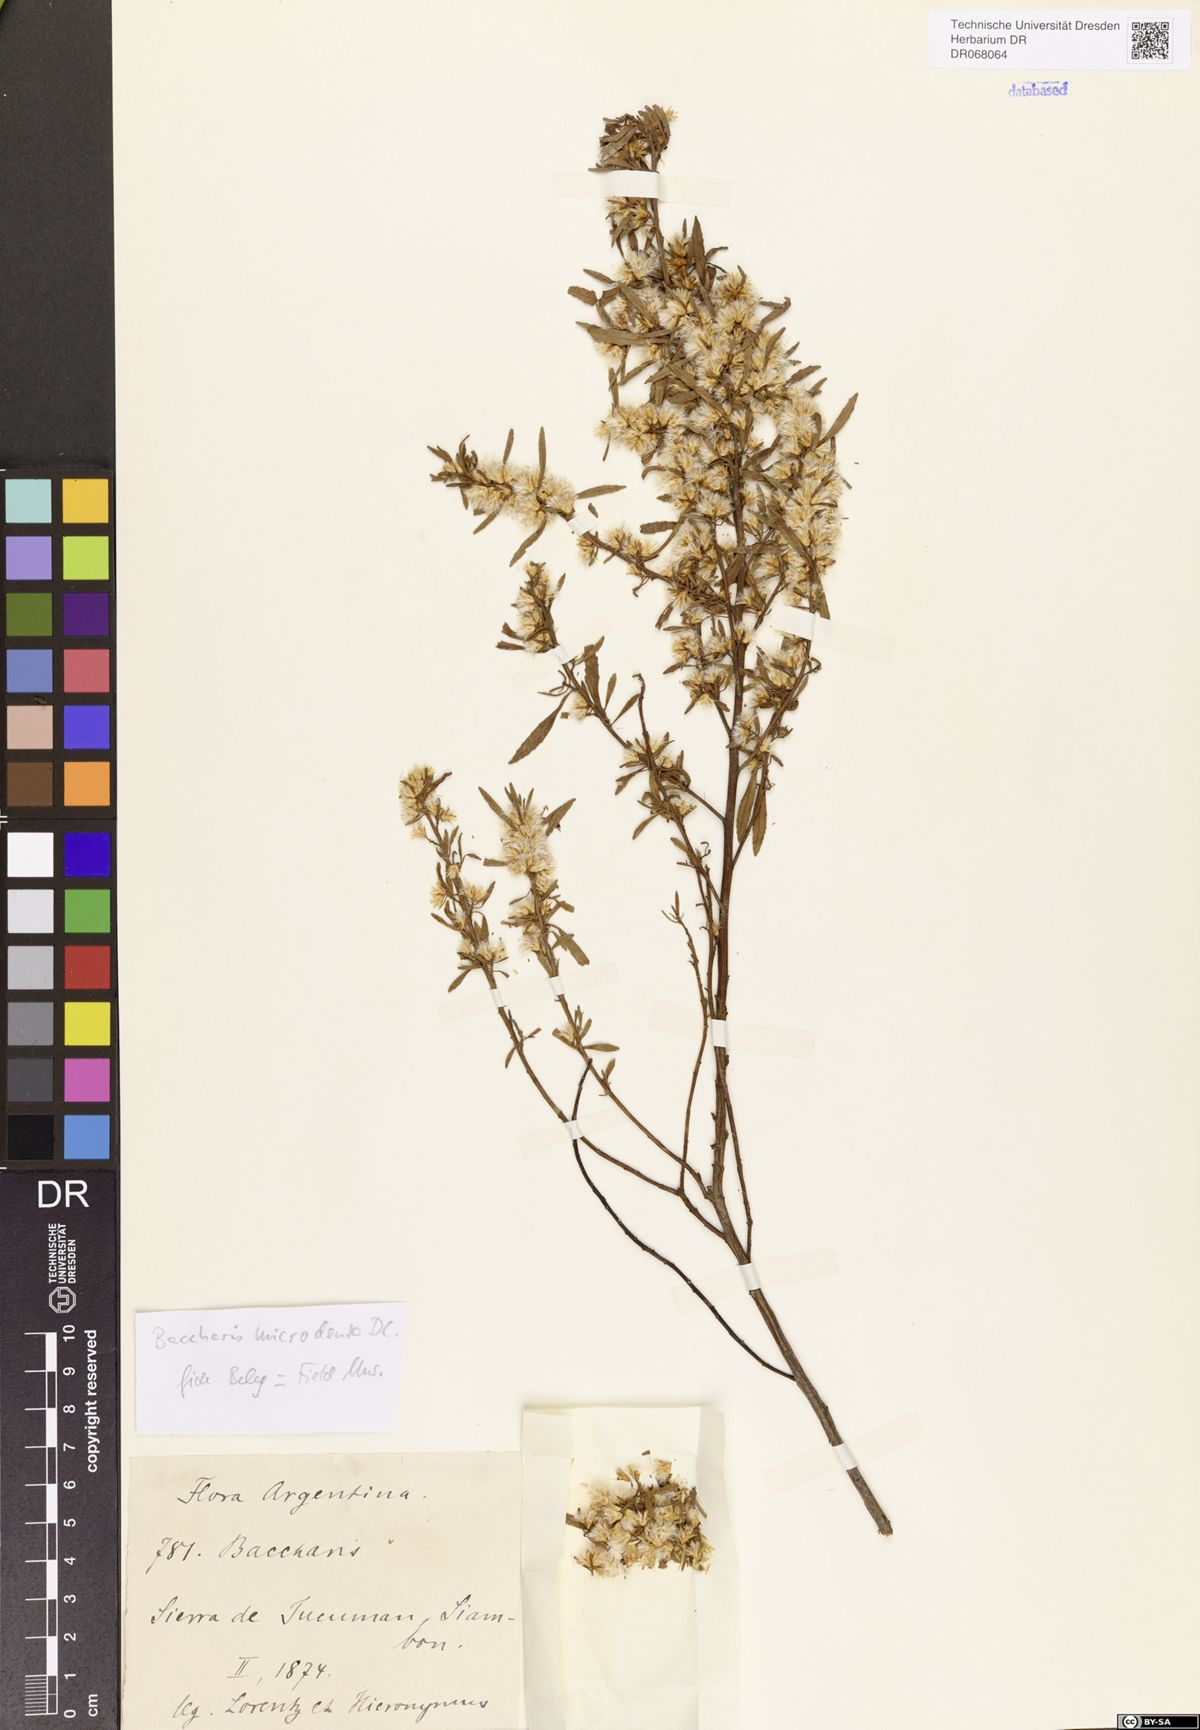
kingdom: Plantae
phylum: Tracheophyta
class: Magnoliopsida
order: Asterales
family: Asteraceae
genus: Baccharis
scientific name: Baccharis microdonta
